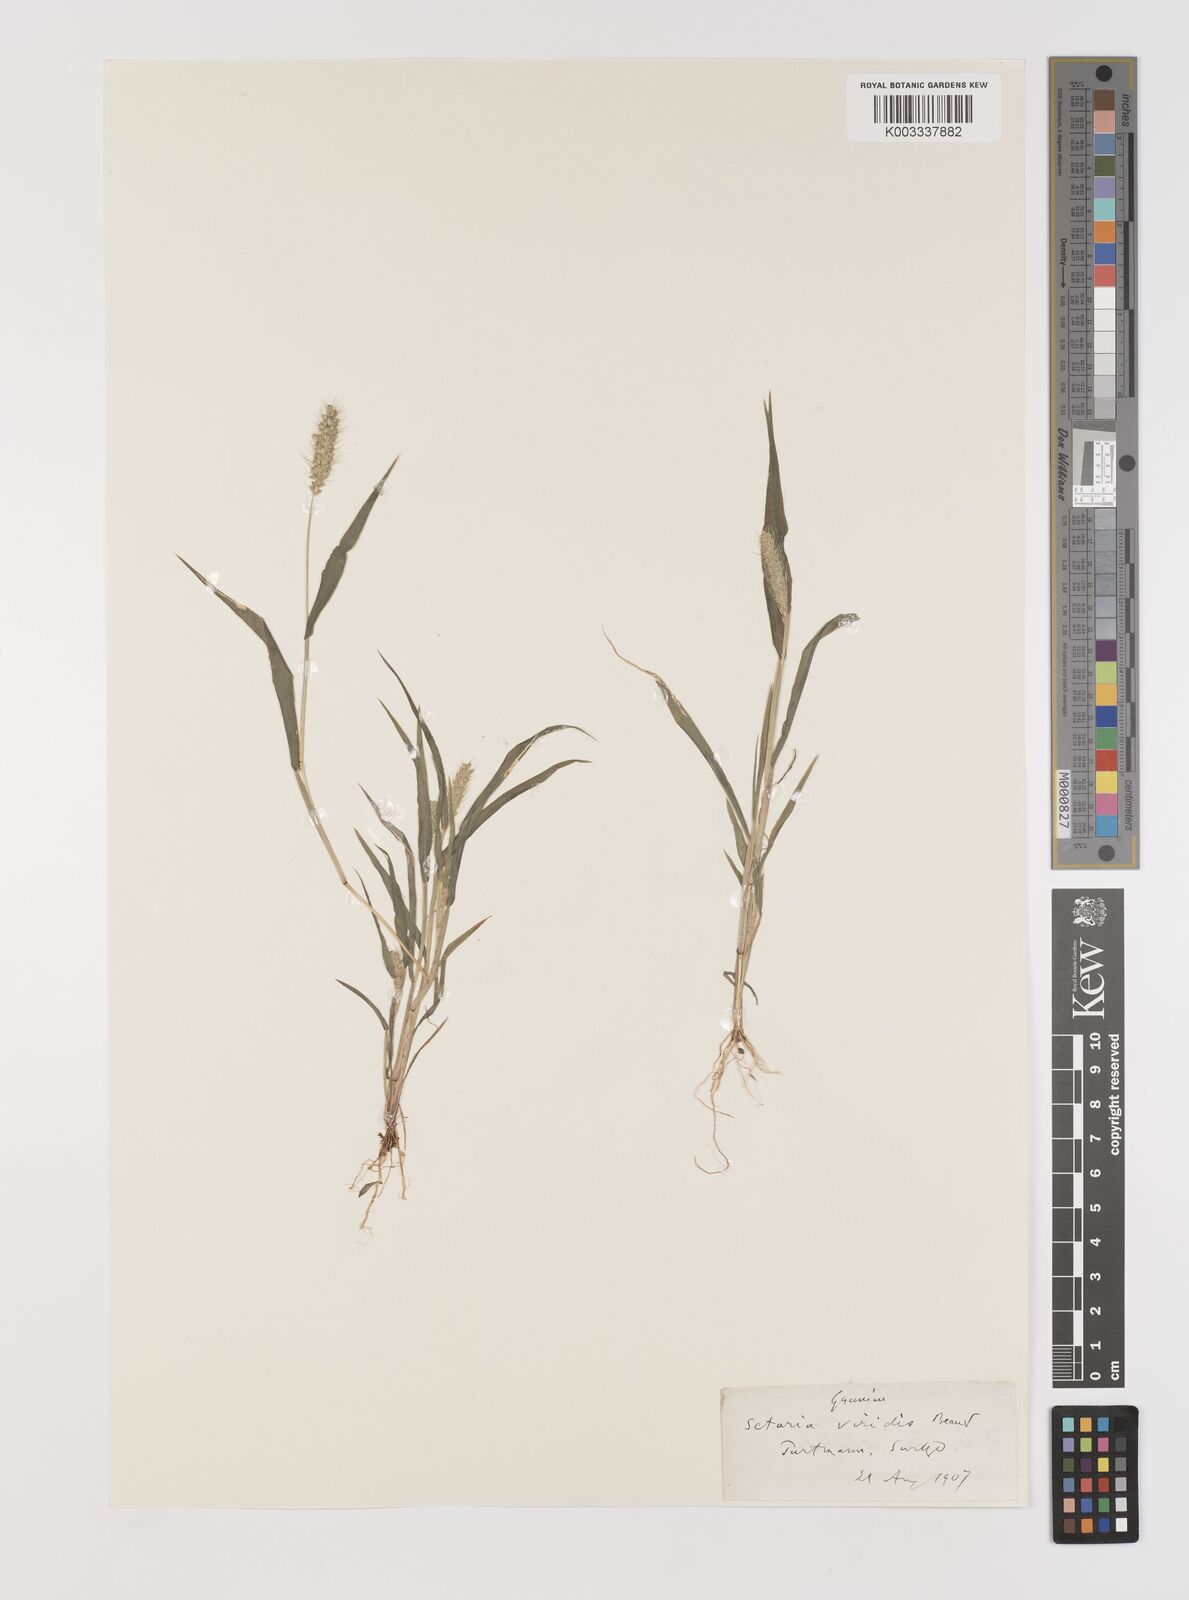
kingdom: Plantae
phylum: Tracheophyta
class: Liliopsida
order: Poales
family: Poaceae
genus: Setaria
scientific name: Setaria viridis
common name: Green bristlegrass
